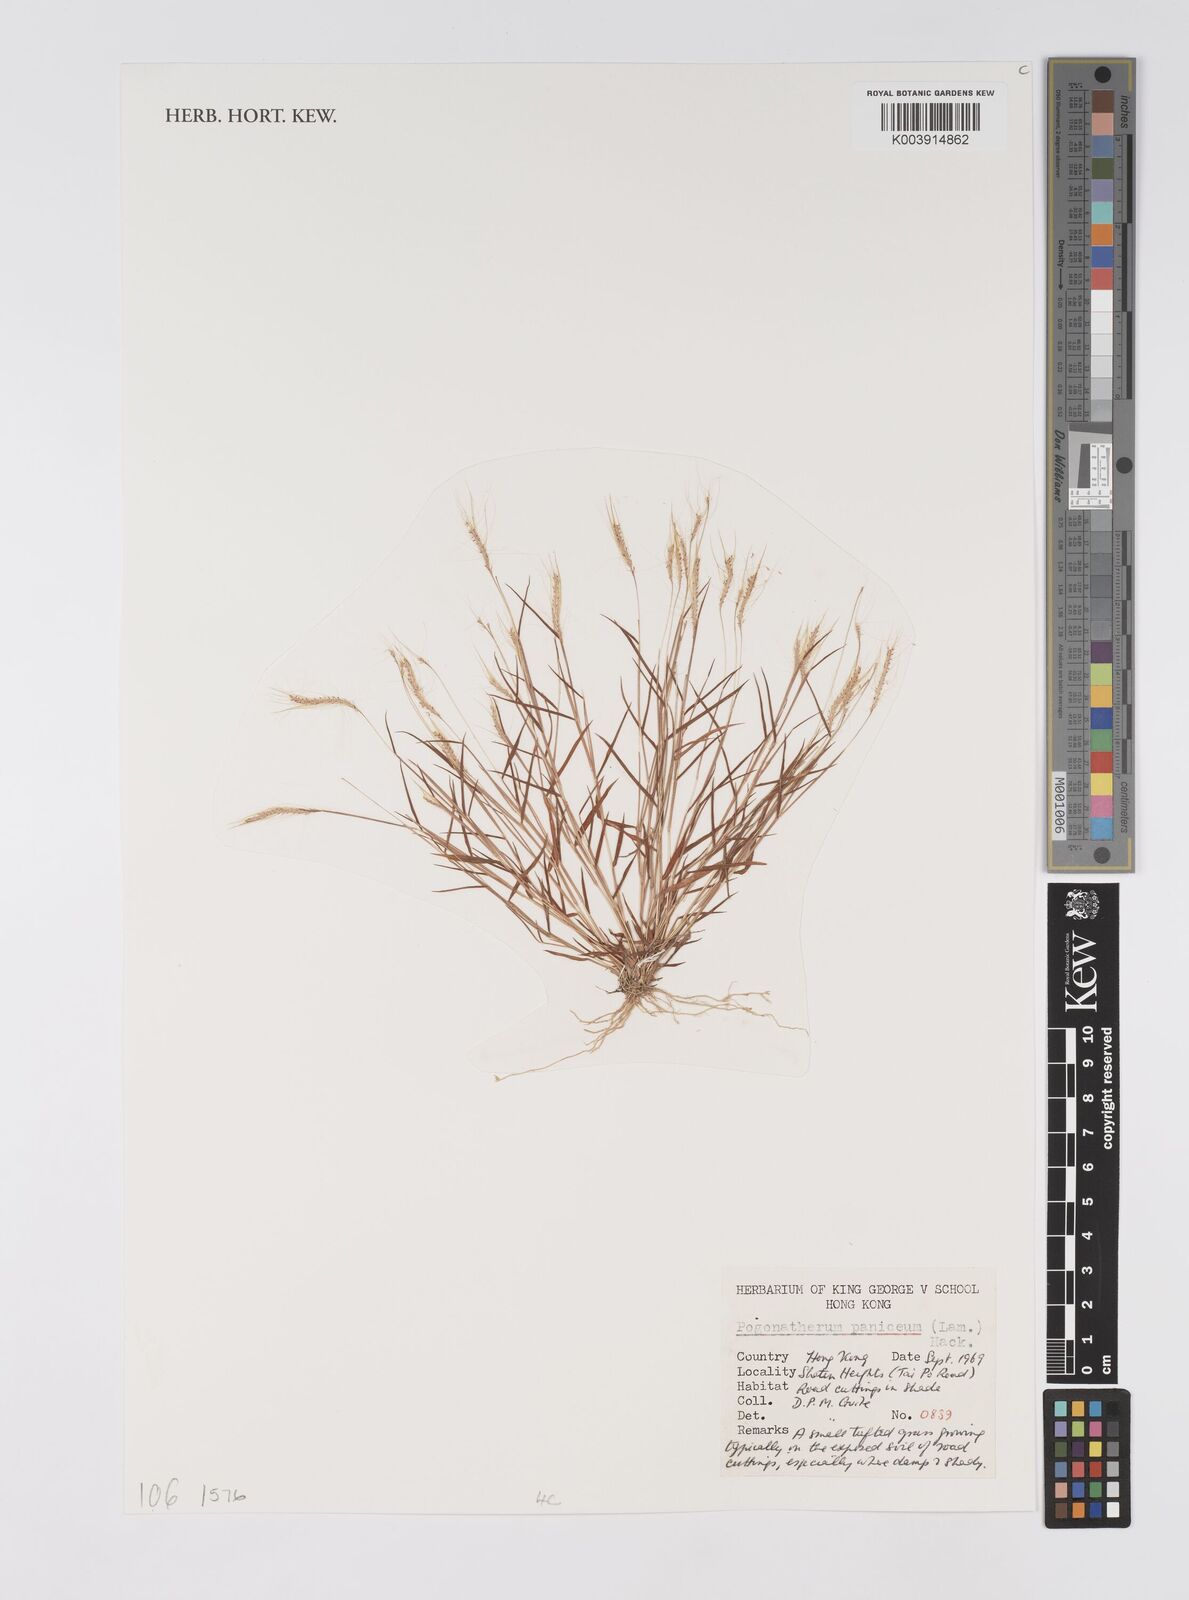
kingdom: Plantae
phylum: Tracheophyta
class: Liliopsida
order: Poales
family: Poaceae
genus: Pogonatherum
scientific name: Pogonatherum paniceum
